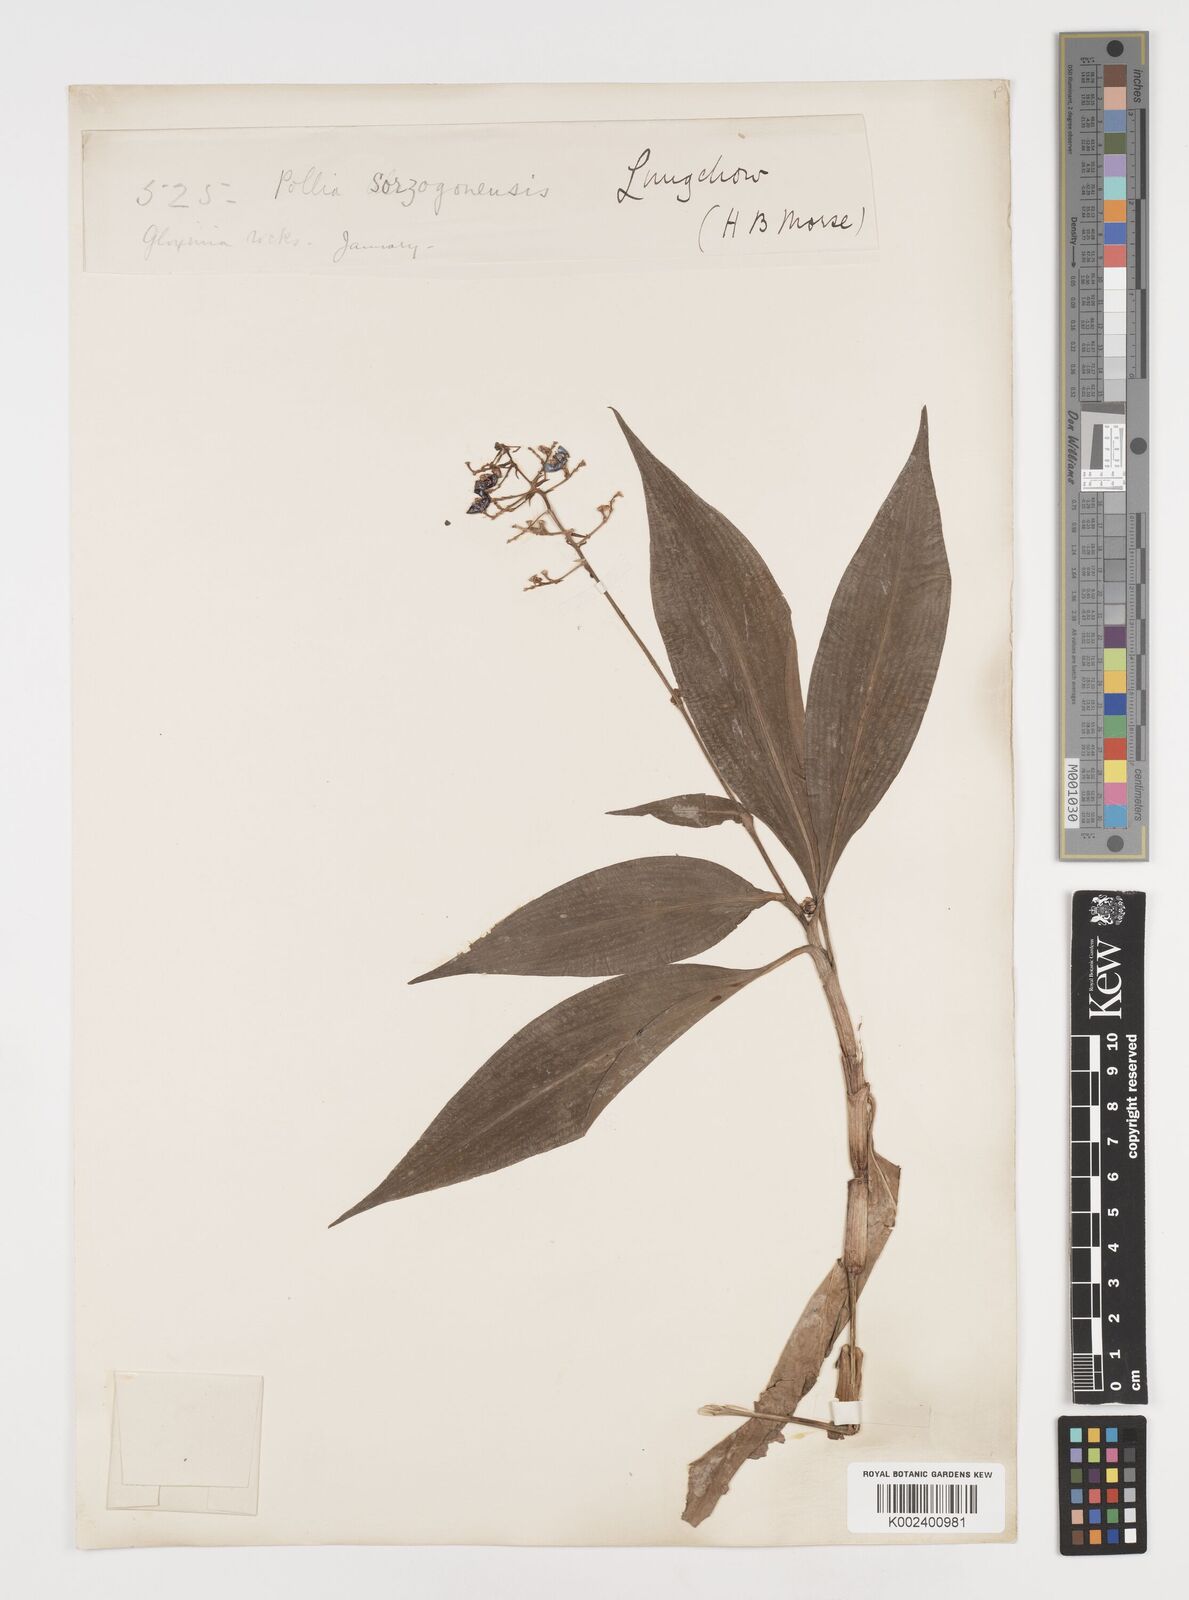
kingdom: Plantae
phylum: Tracheophyta
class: Liliopsida
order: Commelinales
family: Commelinaceae
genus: Pollia
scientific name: Pollia secundiflora
